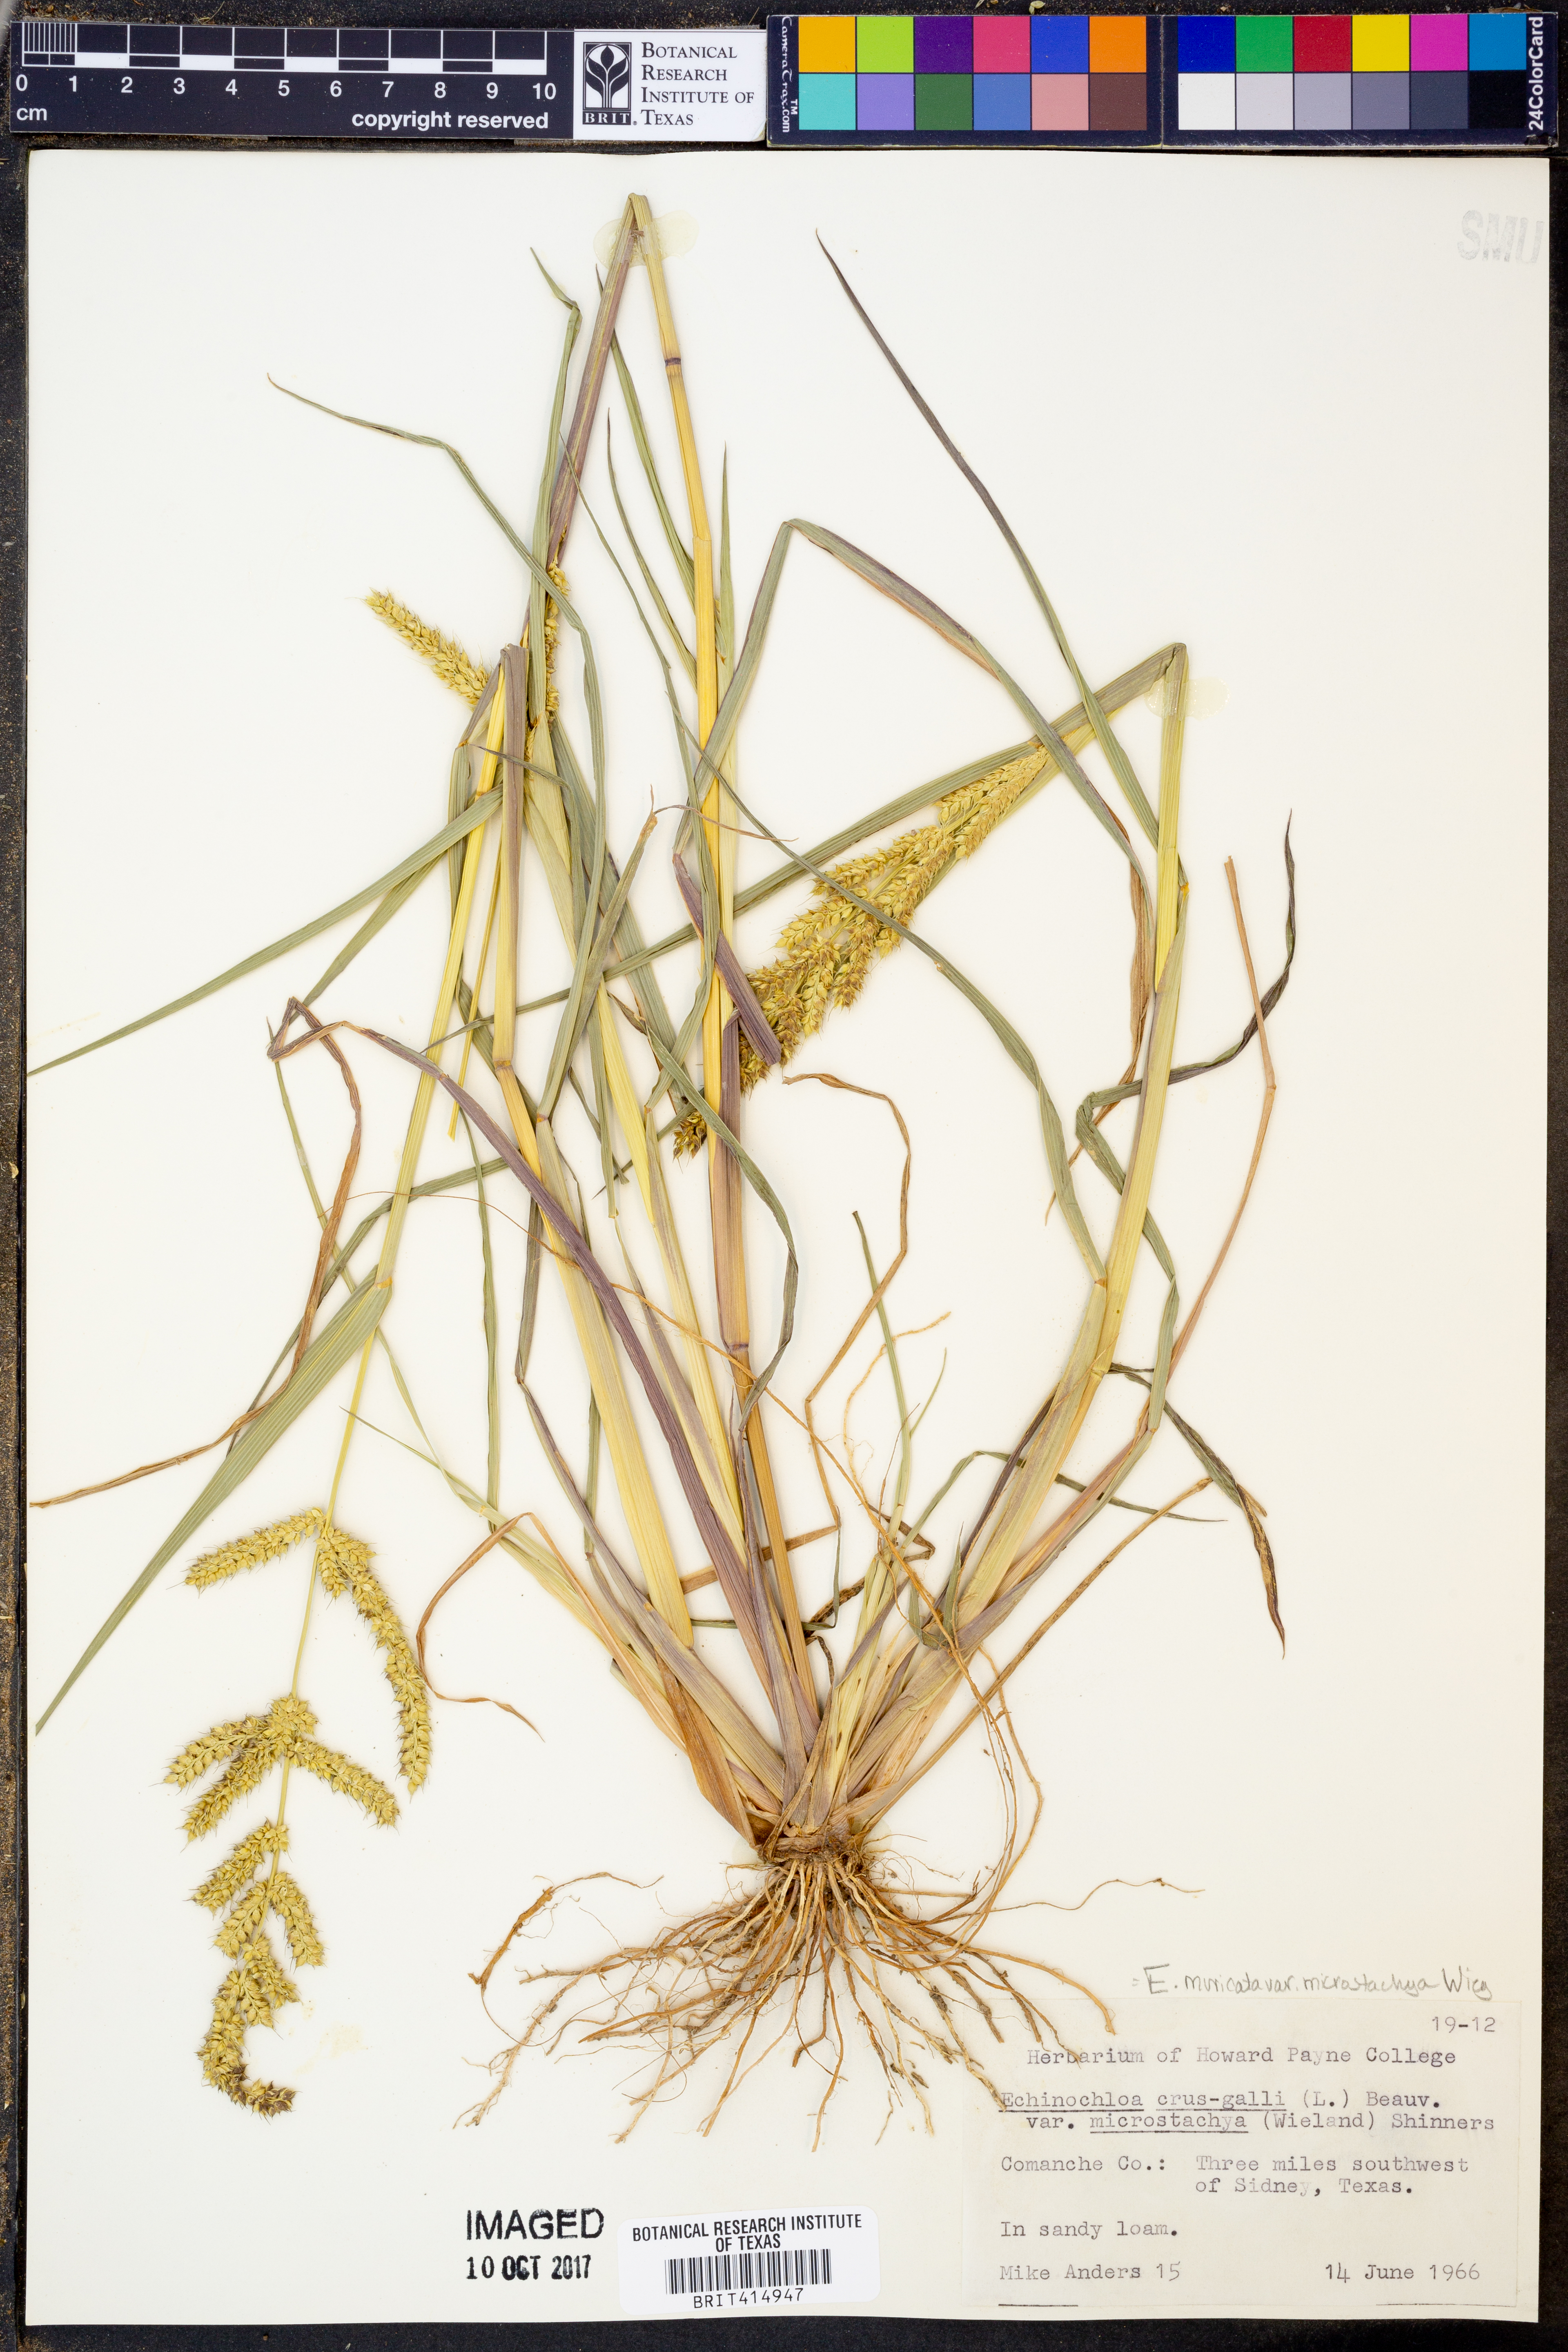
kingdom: Plantae
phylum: Tracheophyta
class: Liliopsida
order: Poales
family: Poaceae
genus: Echinochloa
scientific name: Echinochloa muricata
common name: American barnyard grass
